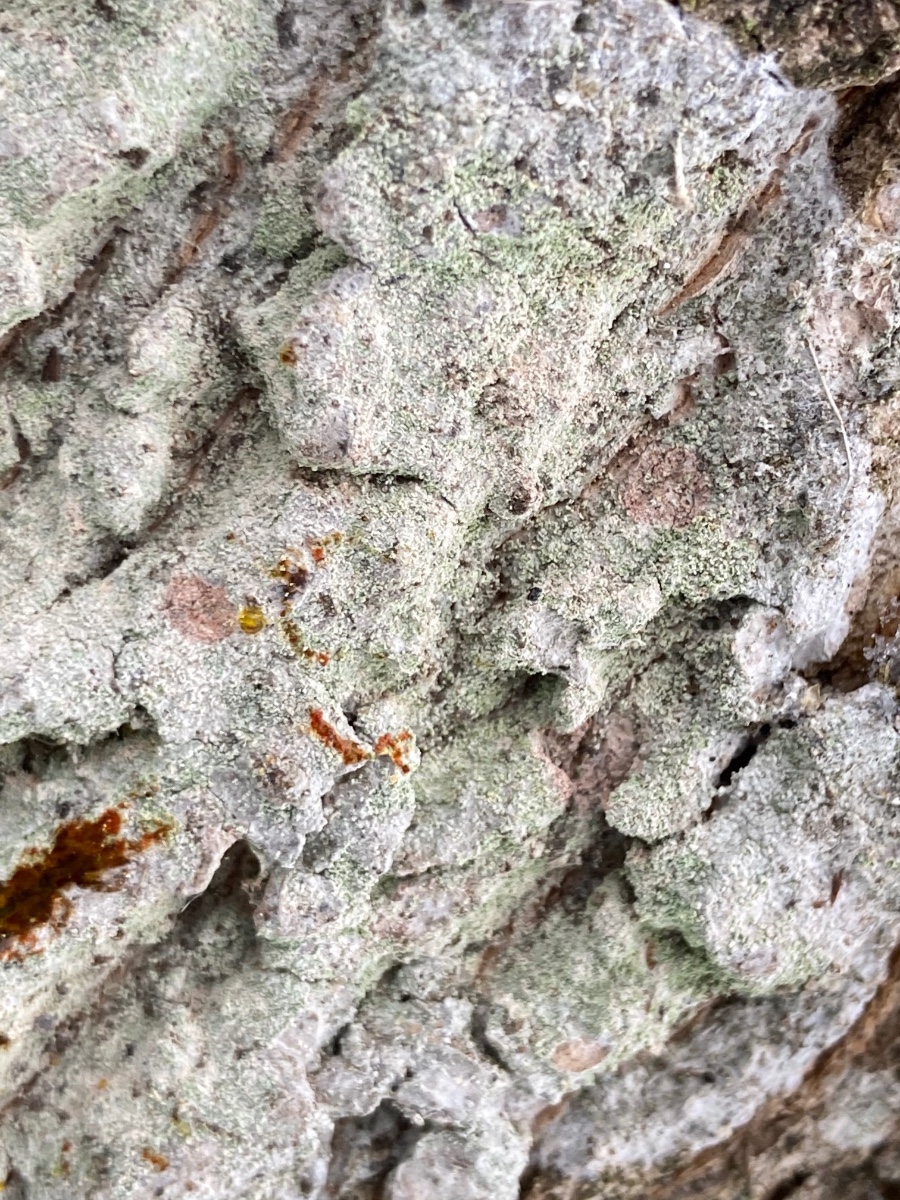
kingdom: Fungi
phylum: Ascomycota
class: Lecanoromycetes
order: Ostropales
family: Phlyctidaceae
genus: Phlyctis
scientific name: Phlyctis argena
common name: almindelig sølvlav
